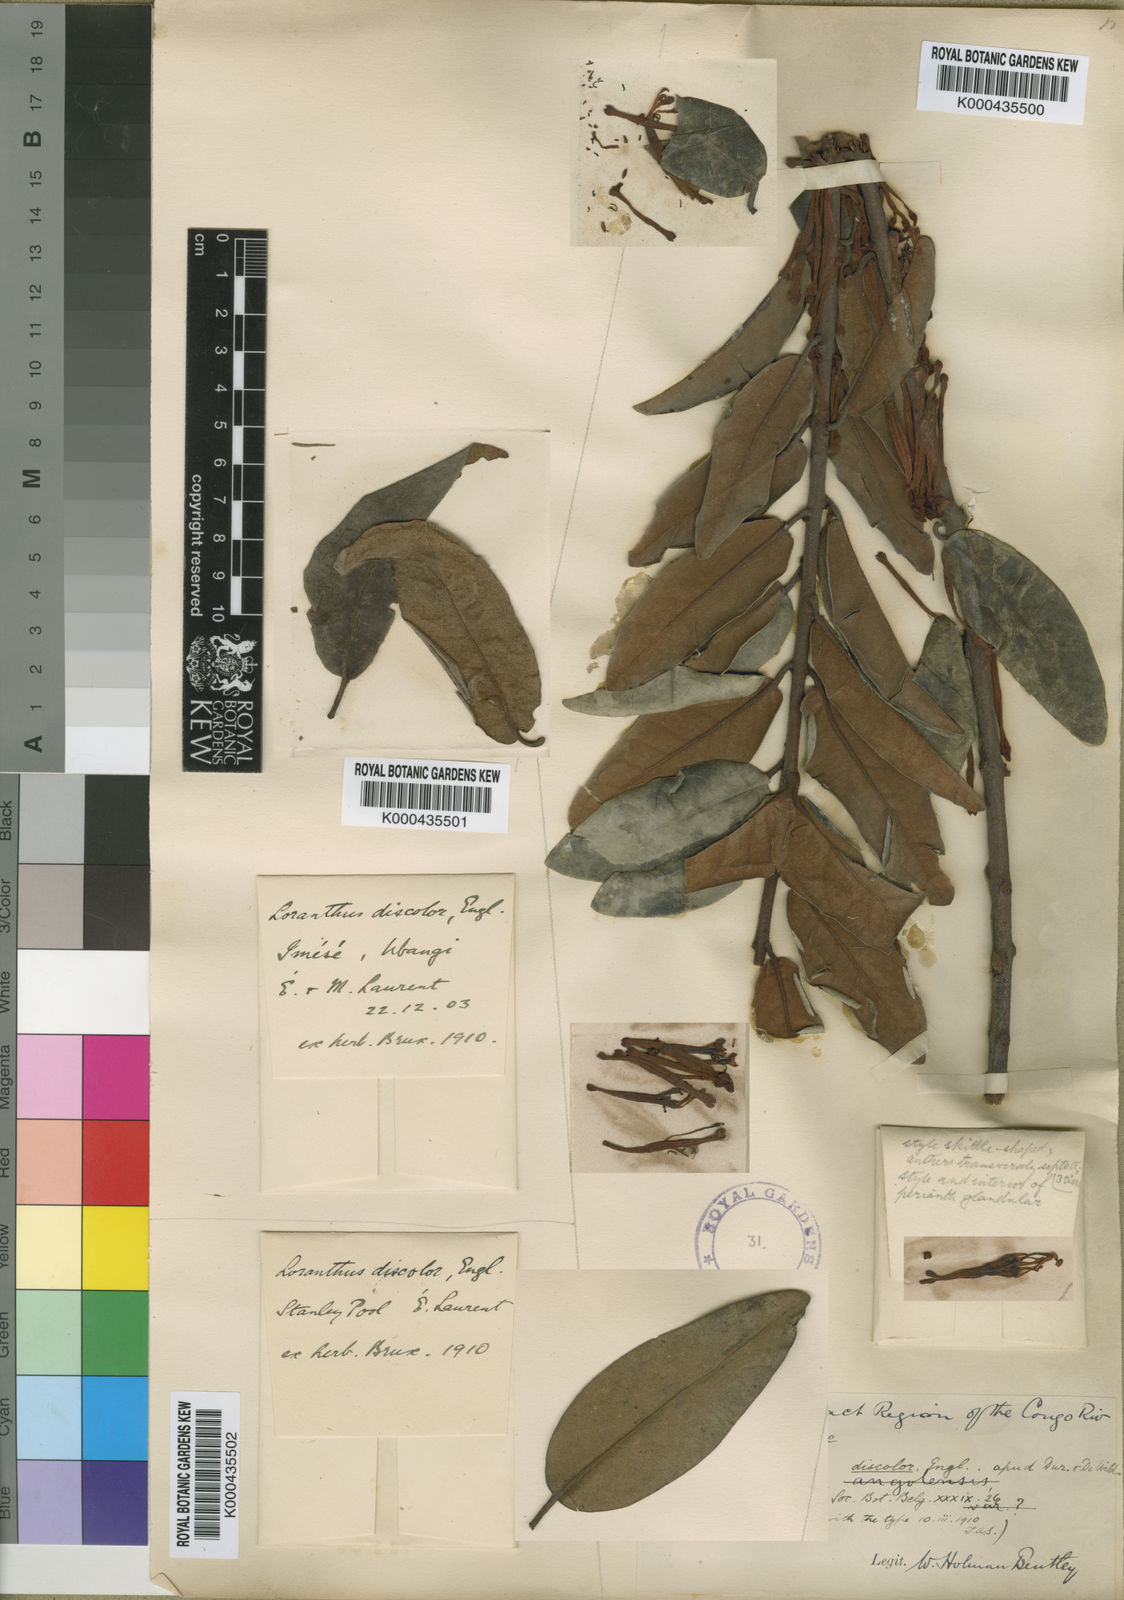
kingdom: Plantae
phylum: Tracheophyta
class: Magnoliopsida
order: Santalales
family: Loranthaceae
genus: Phragmanthera
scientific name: Phragmanthera polycrypta
